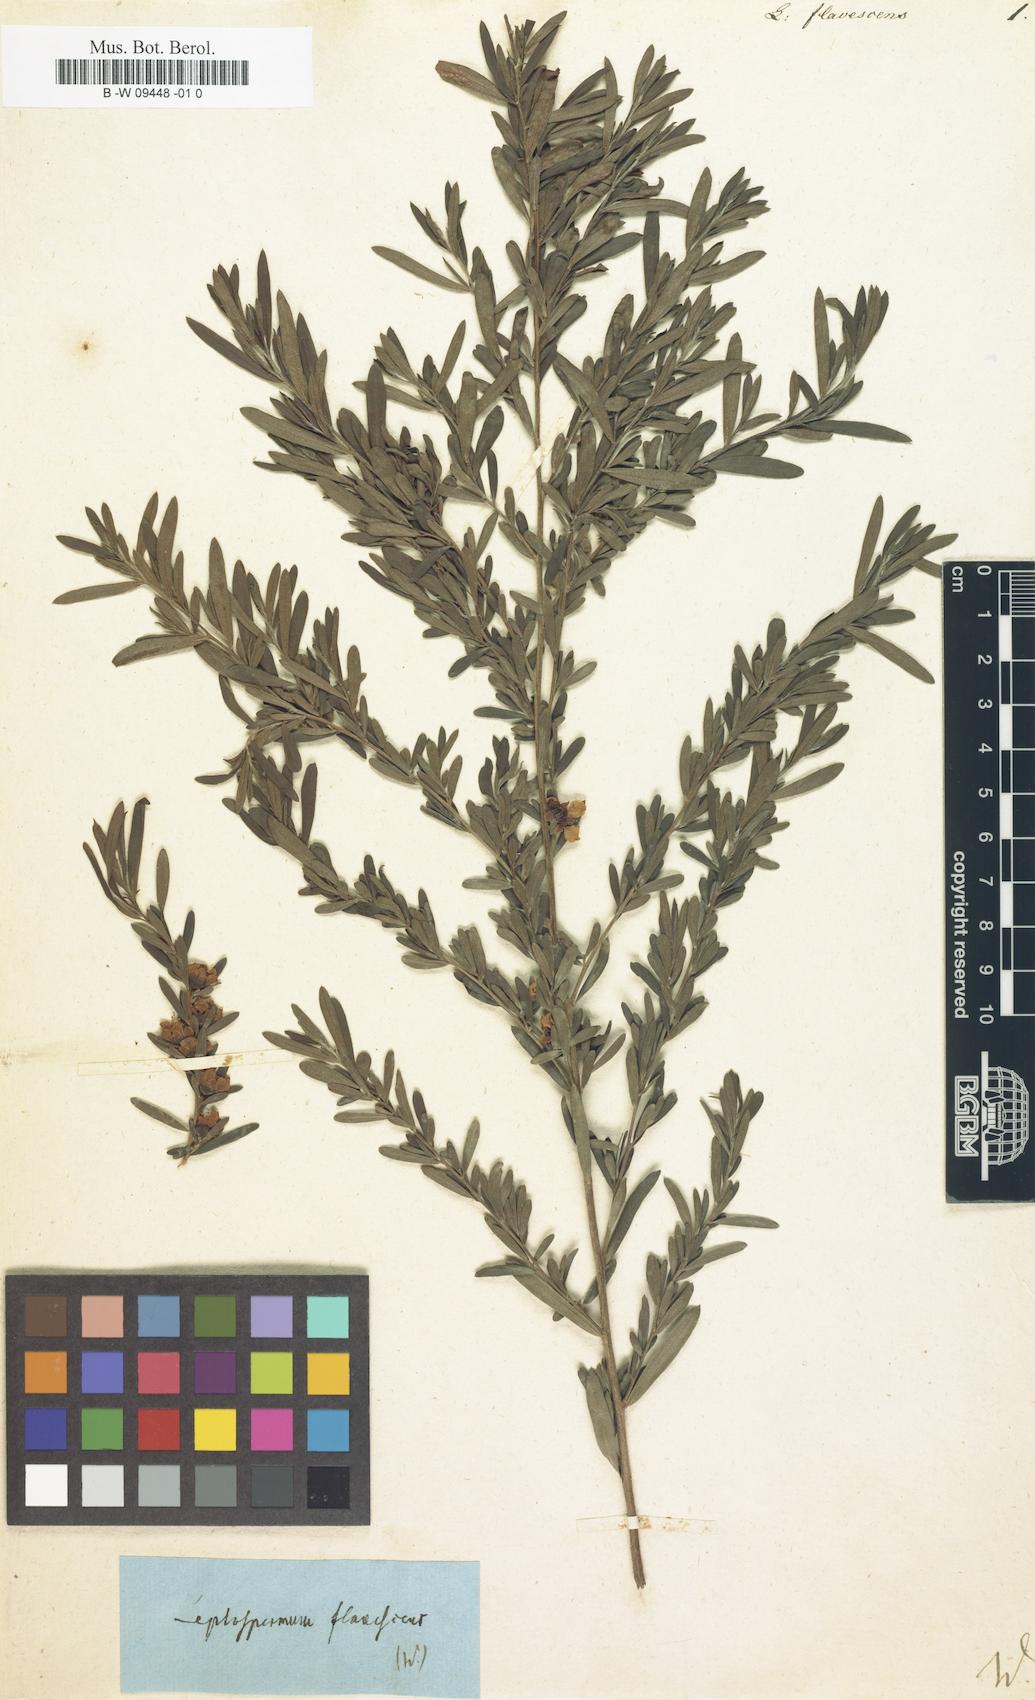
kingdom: Plantae
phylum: Tracheophyta
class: Magnoliopsida
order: Myrtales
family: Myrtaceae
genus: Leptospermum
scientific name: Leptospermum polygalifolium
